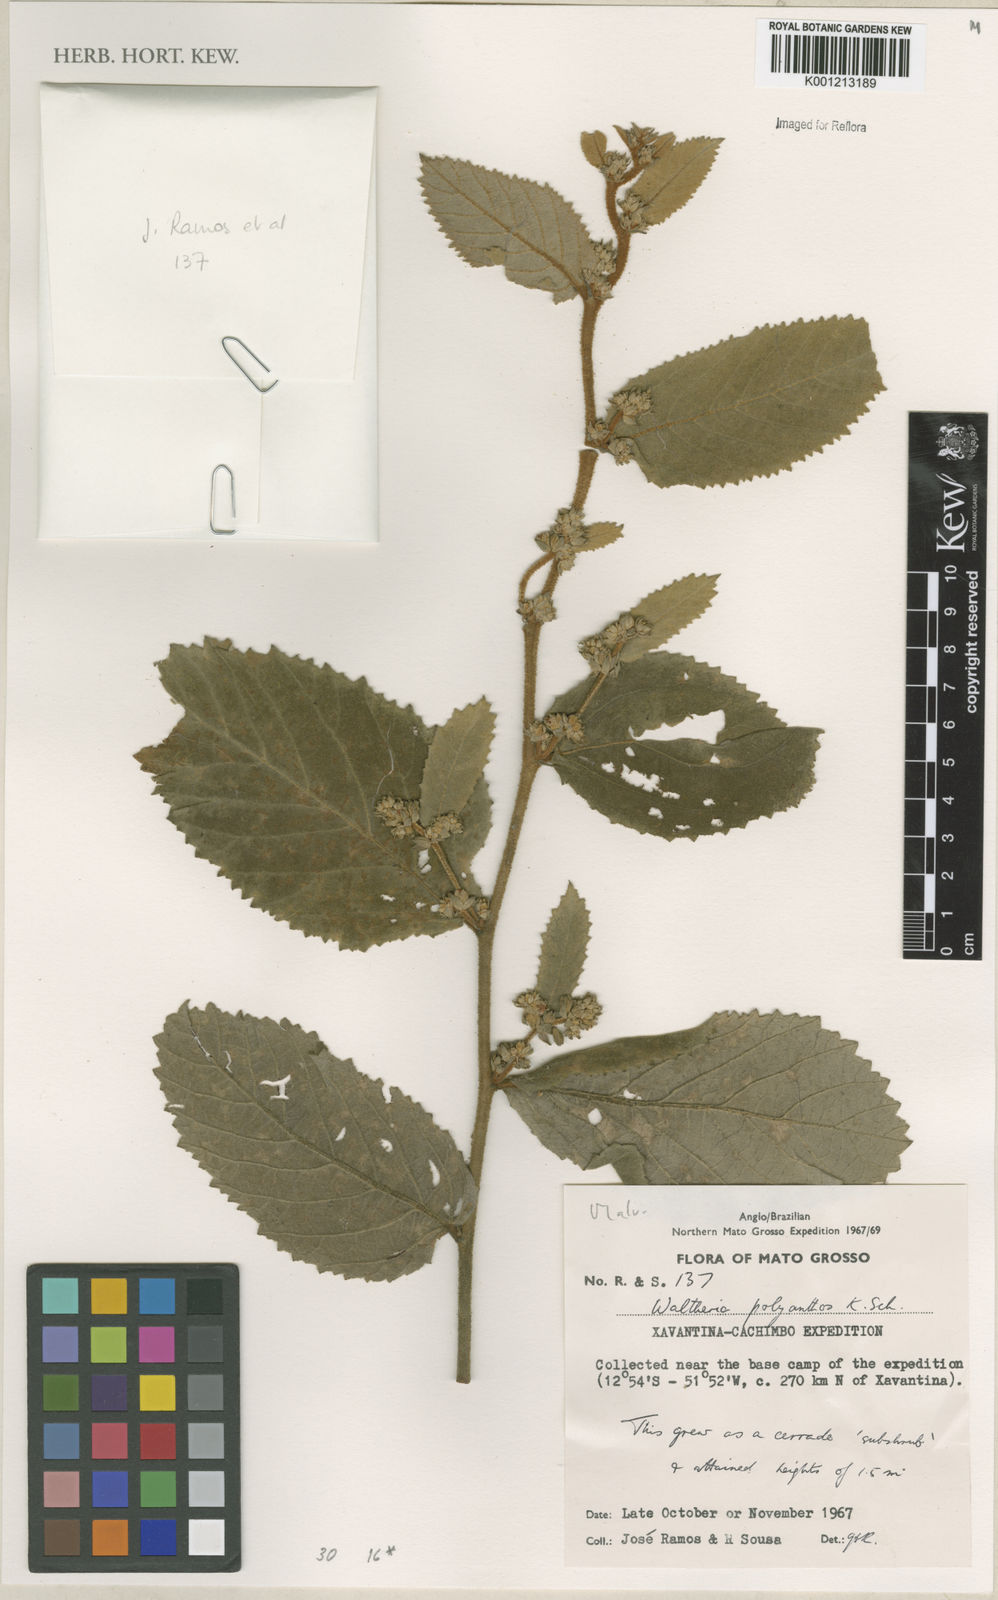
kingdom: Plantae
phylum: Tracheophyta
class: Magnoliopsida
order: Malvales
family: Malvaceae
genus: Waltheria
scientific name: Waltheria polyantha
